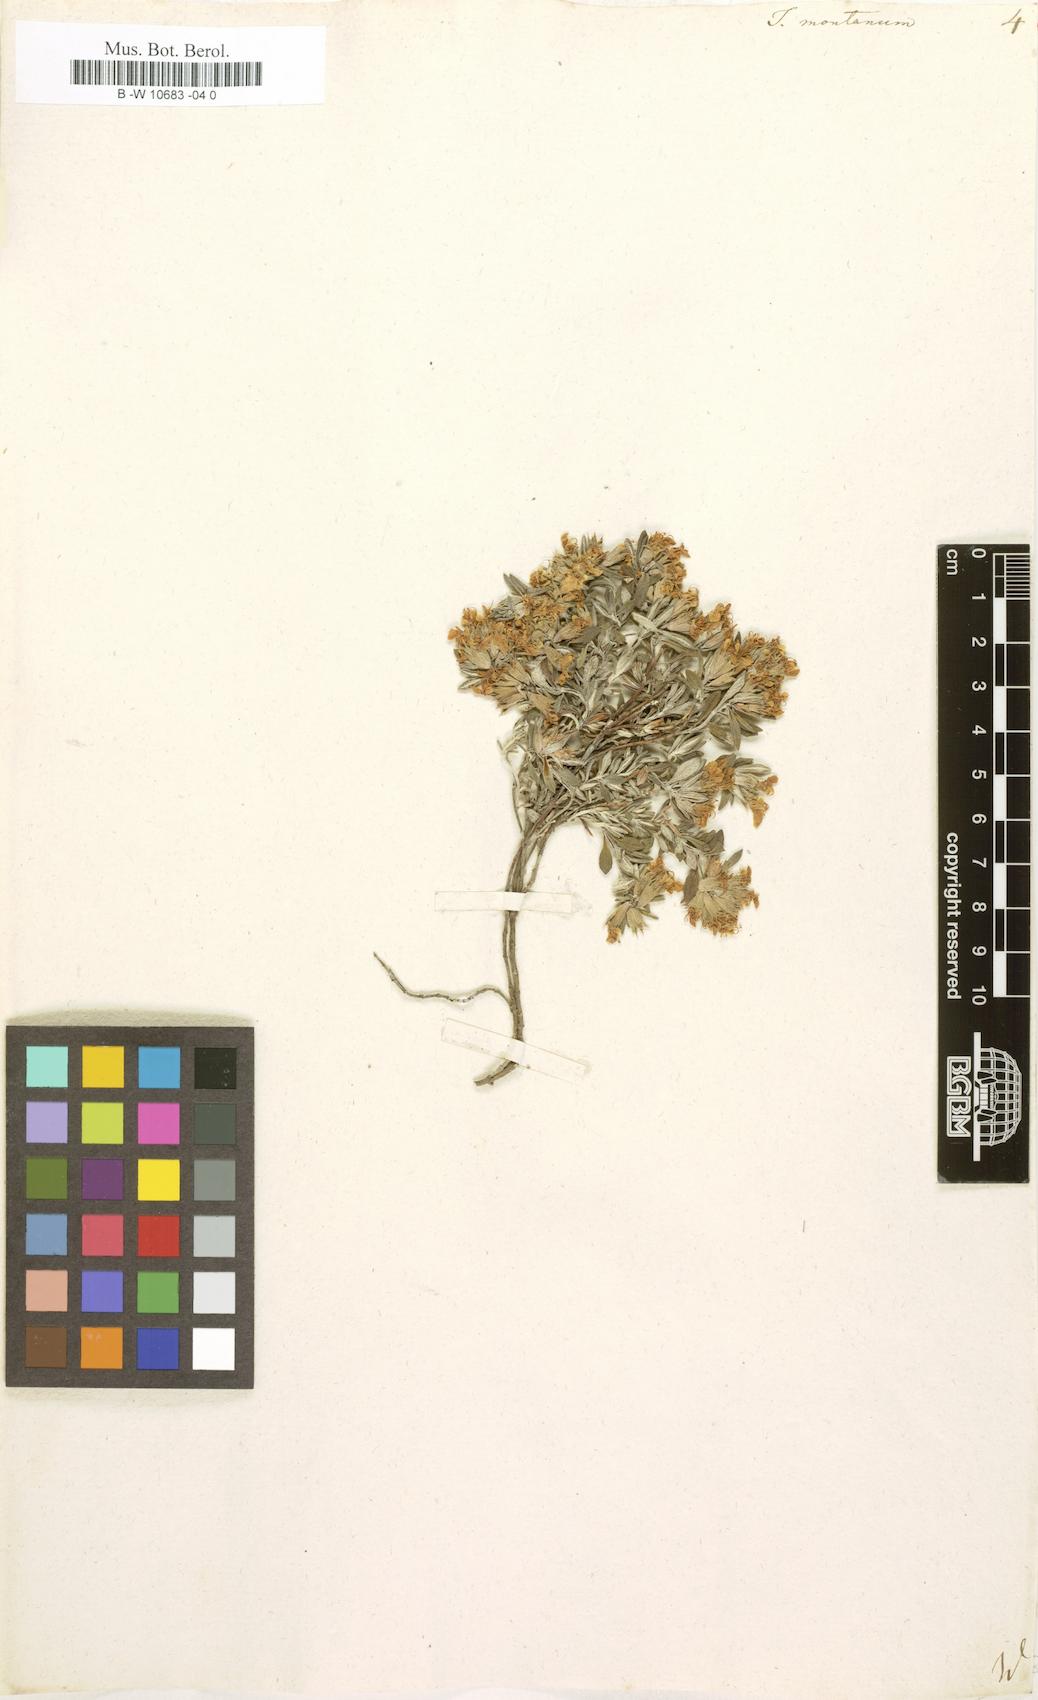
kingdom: Plantae
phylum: Tracheophyta
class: Magnoliopsida
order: Lamiales
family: Lamiaceae
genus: Teucrium
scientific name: Teucrium montanum
